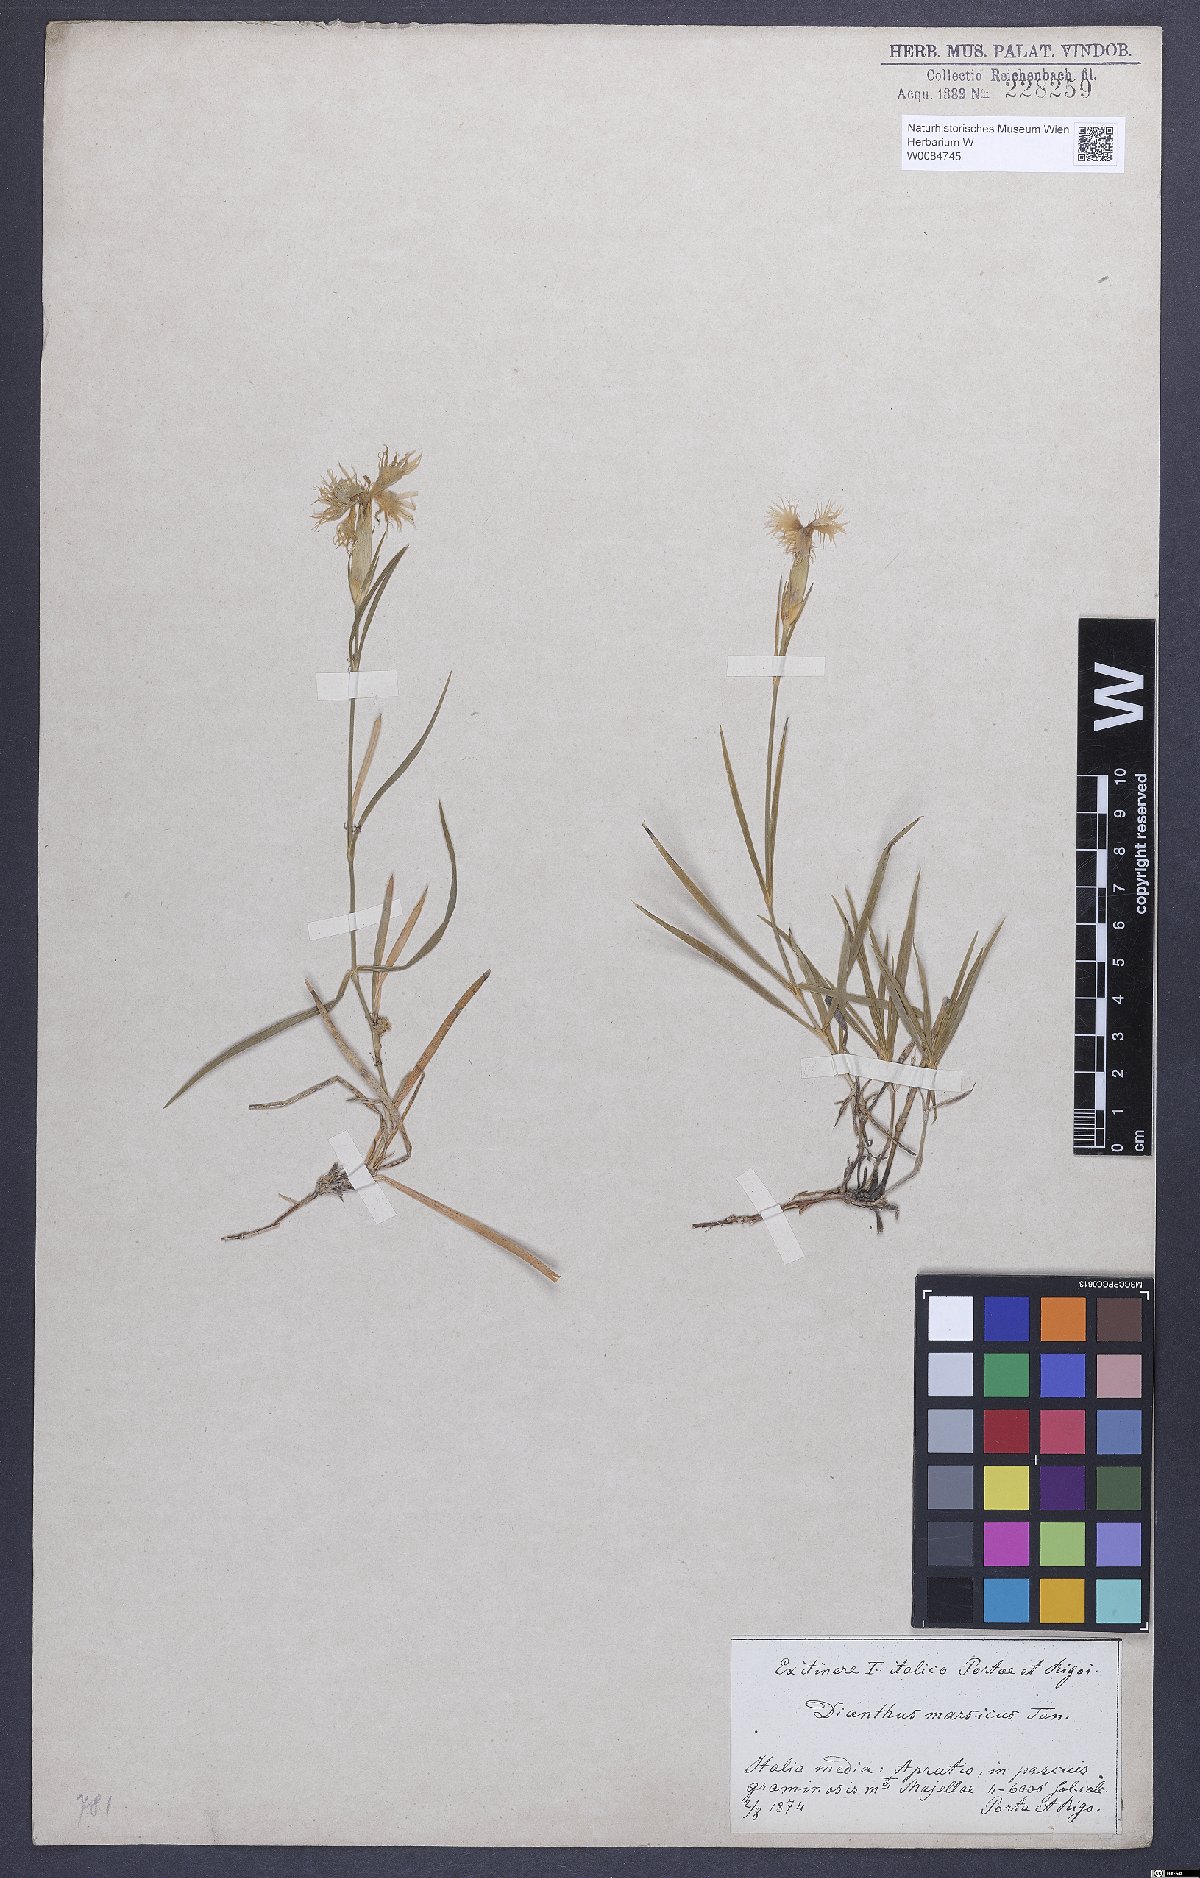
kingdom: Plantae
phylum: Tracheophyta
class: Magnoliopsida
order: Caryophyllales
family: Caryophyllaceae
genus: Dianthus
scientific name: Dianthus hyssopifolius
